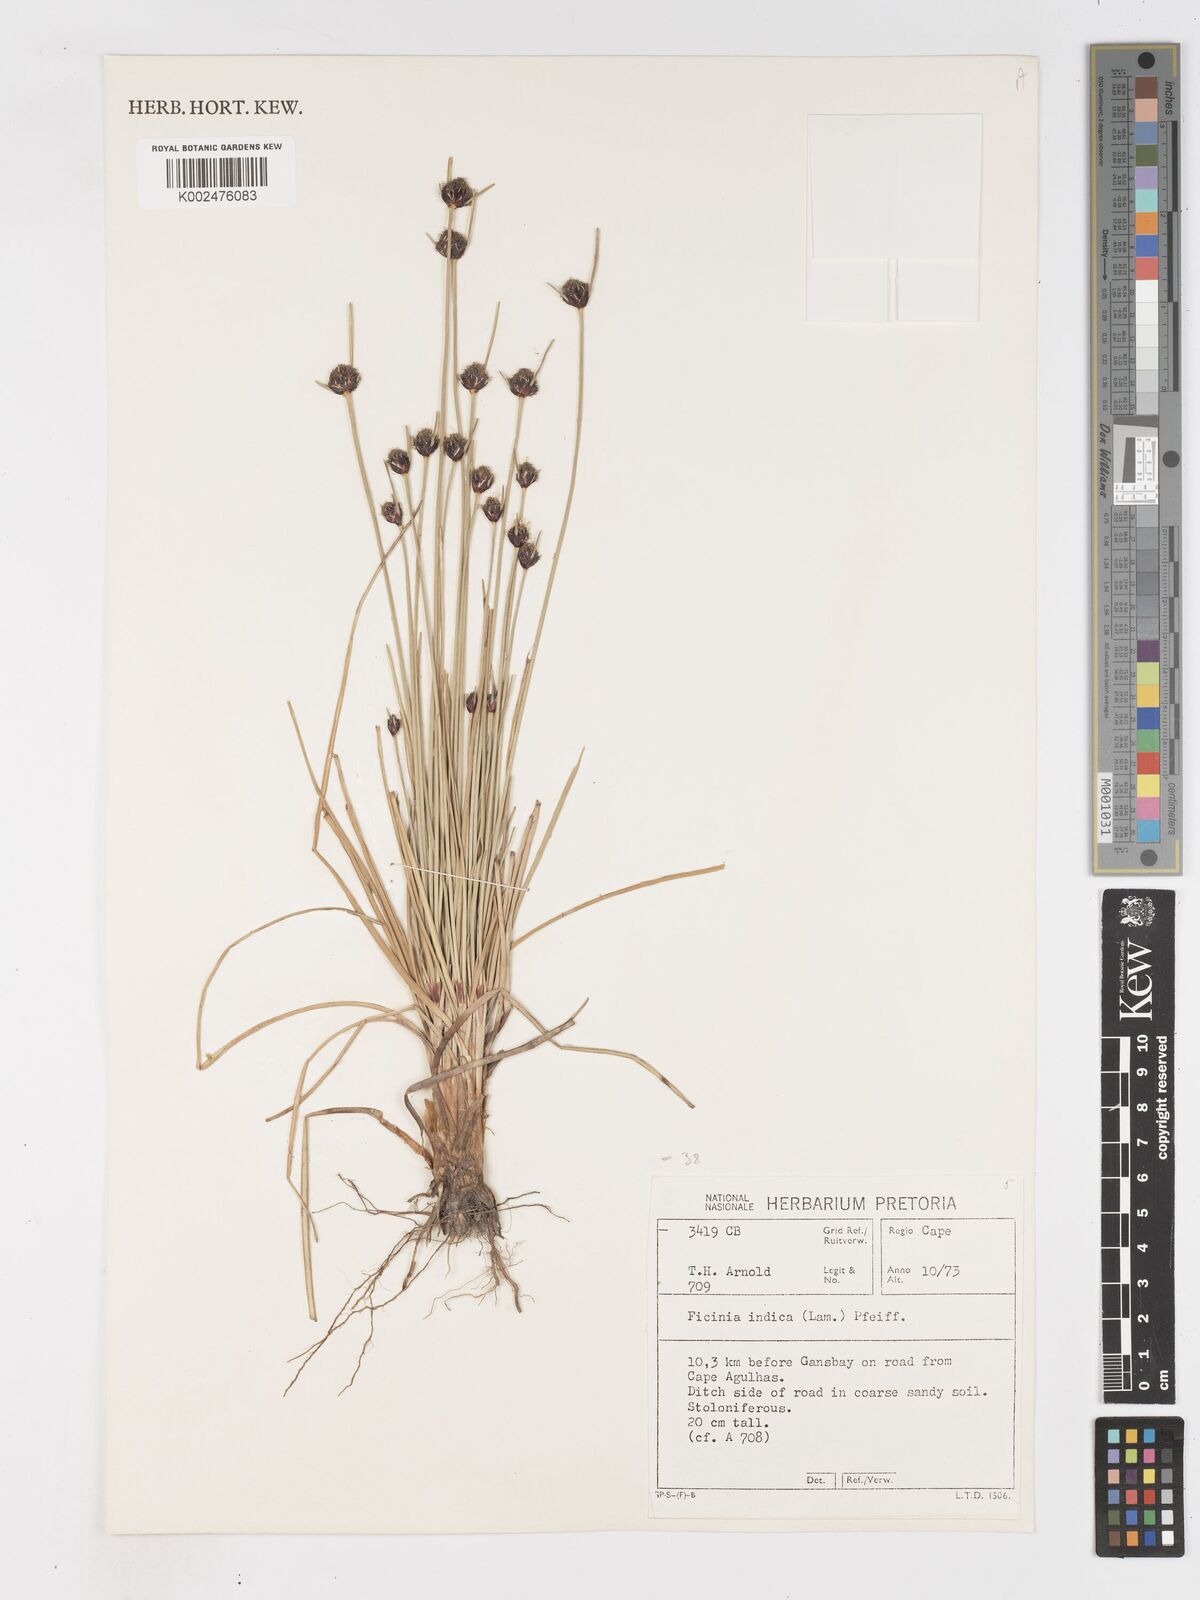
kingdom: Plantae
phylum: Tracheophyta
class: Liliopsida
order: Poales
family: Cyperaceae
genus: Ficinia
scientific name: Ficinia indica
